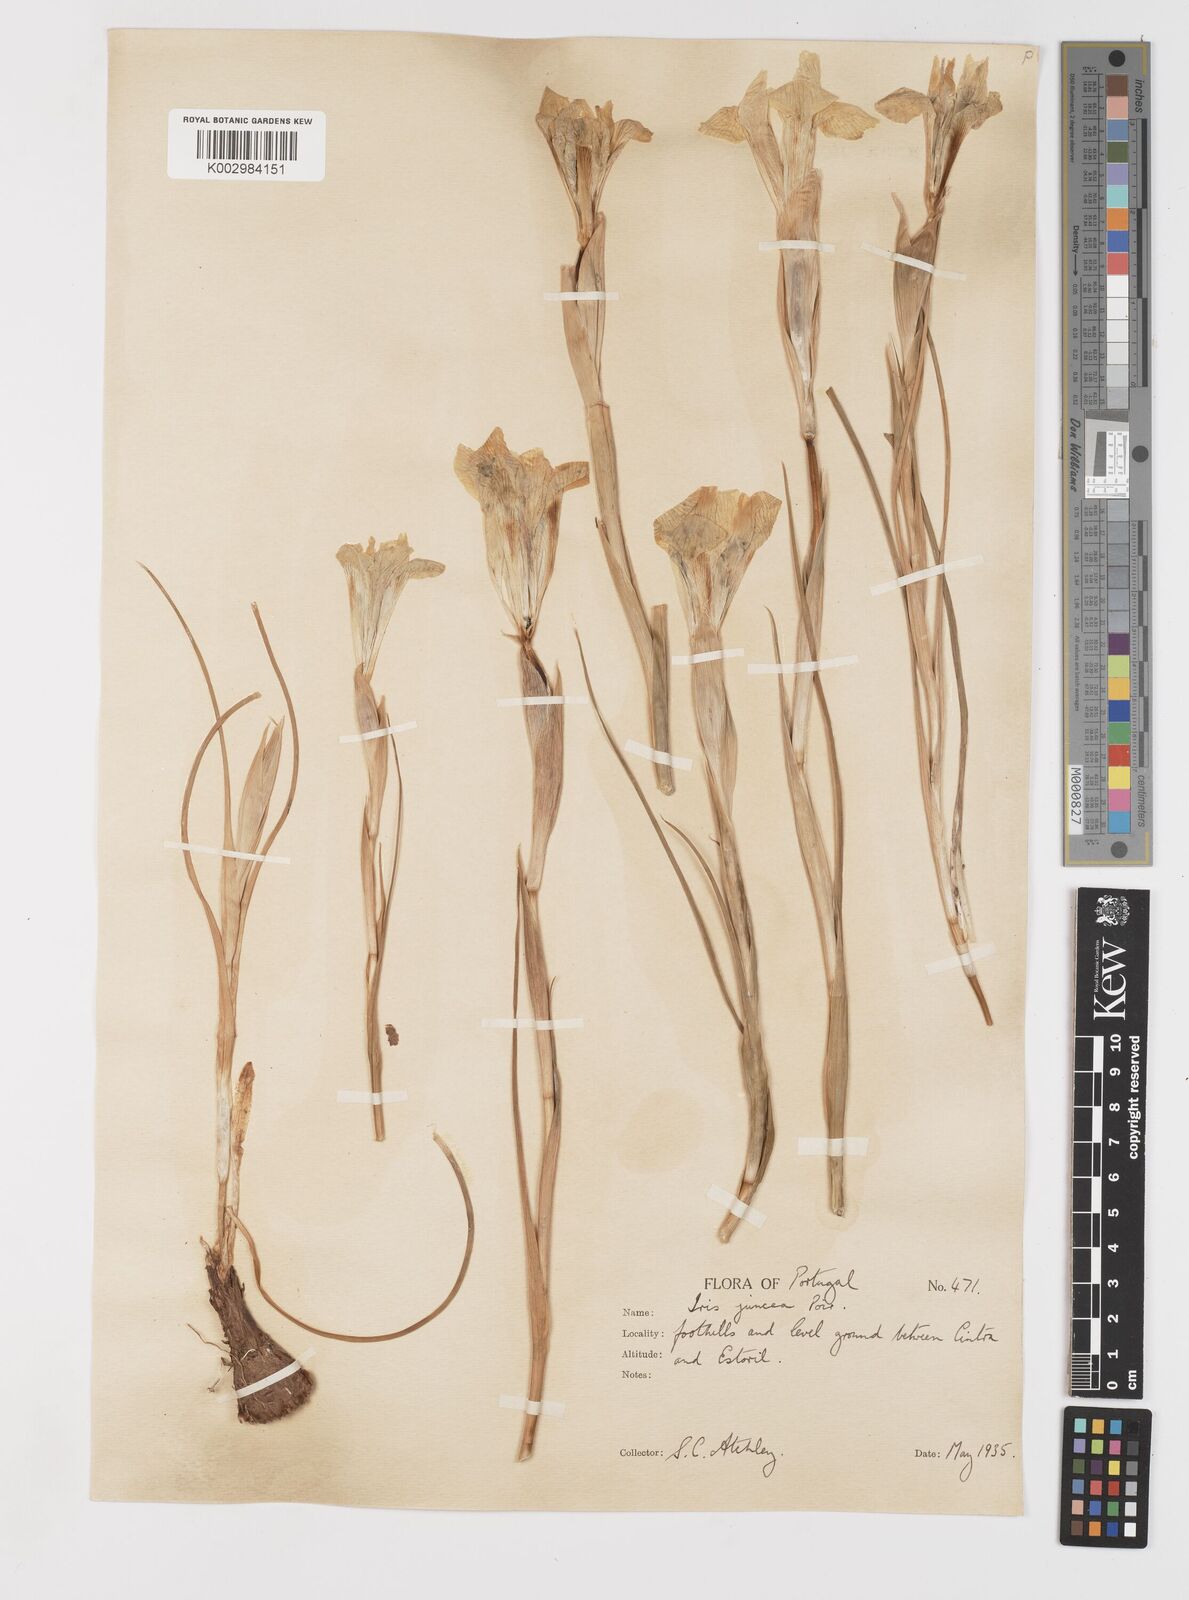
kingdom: Plantae
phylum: Tracheophyta
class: Liliopsida
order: Asparagales
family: Iridaceae
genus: Iris
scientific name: Iris xiphium
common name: Spanish iris
